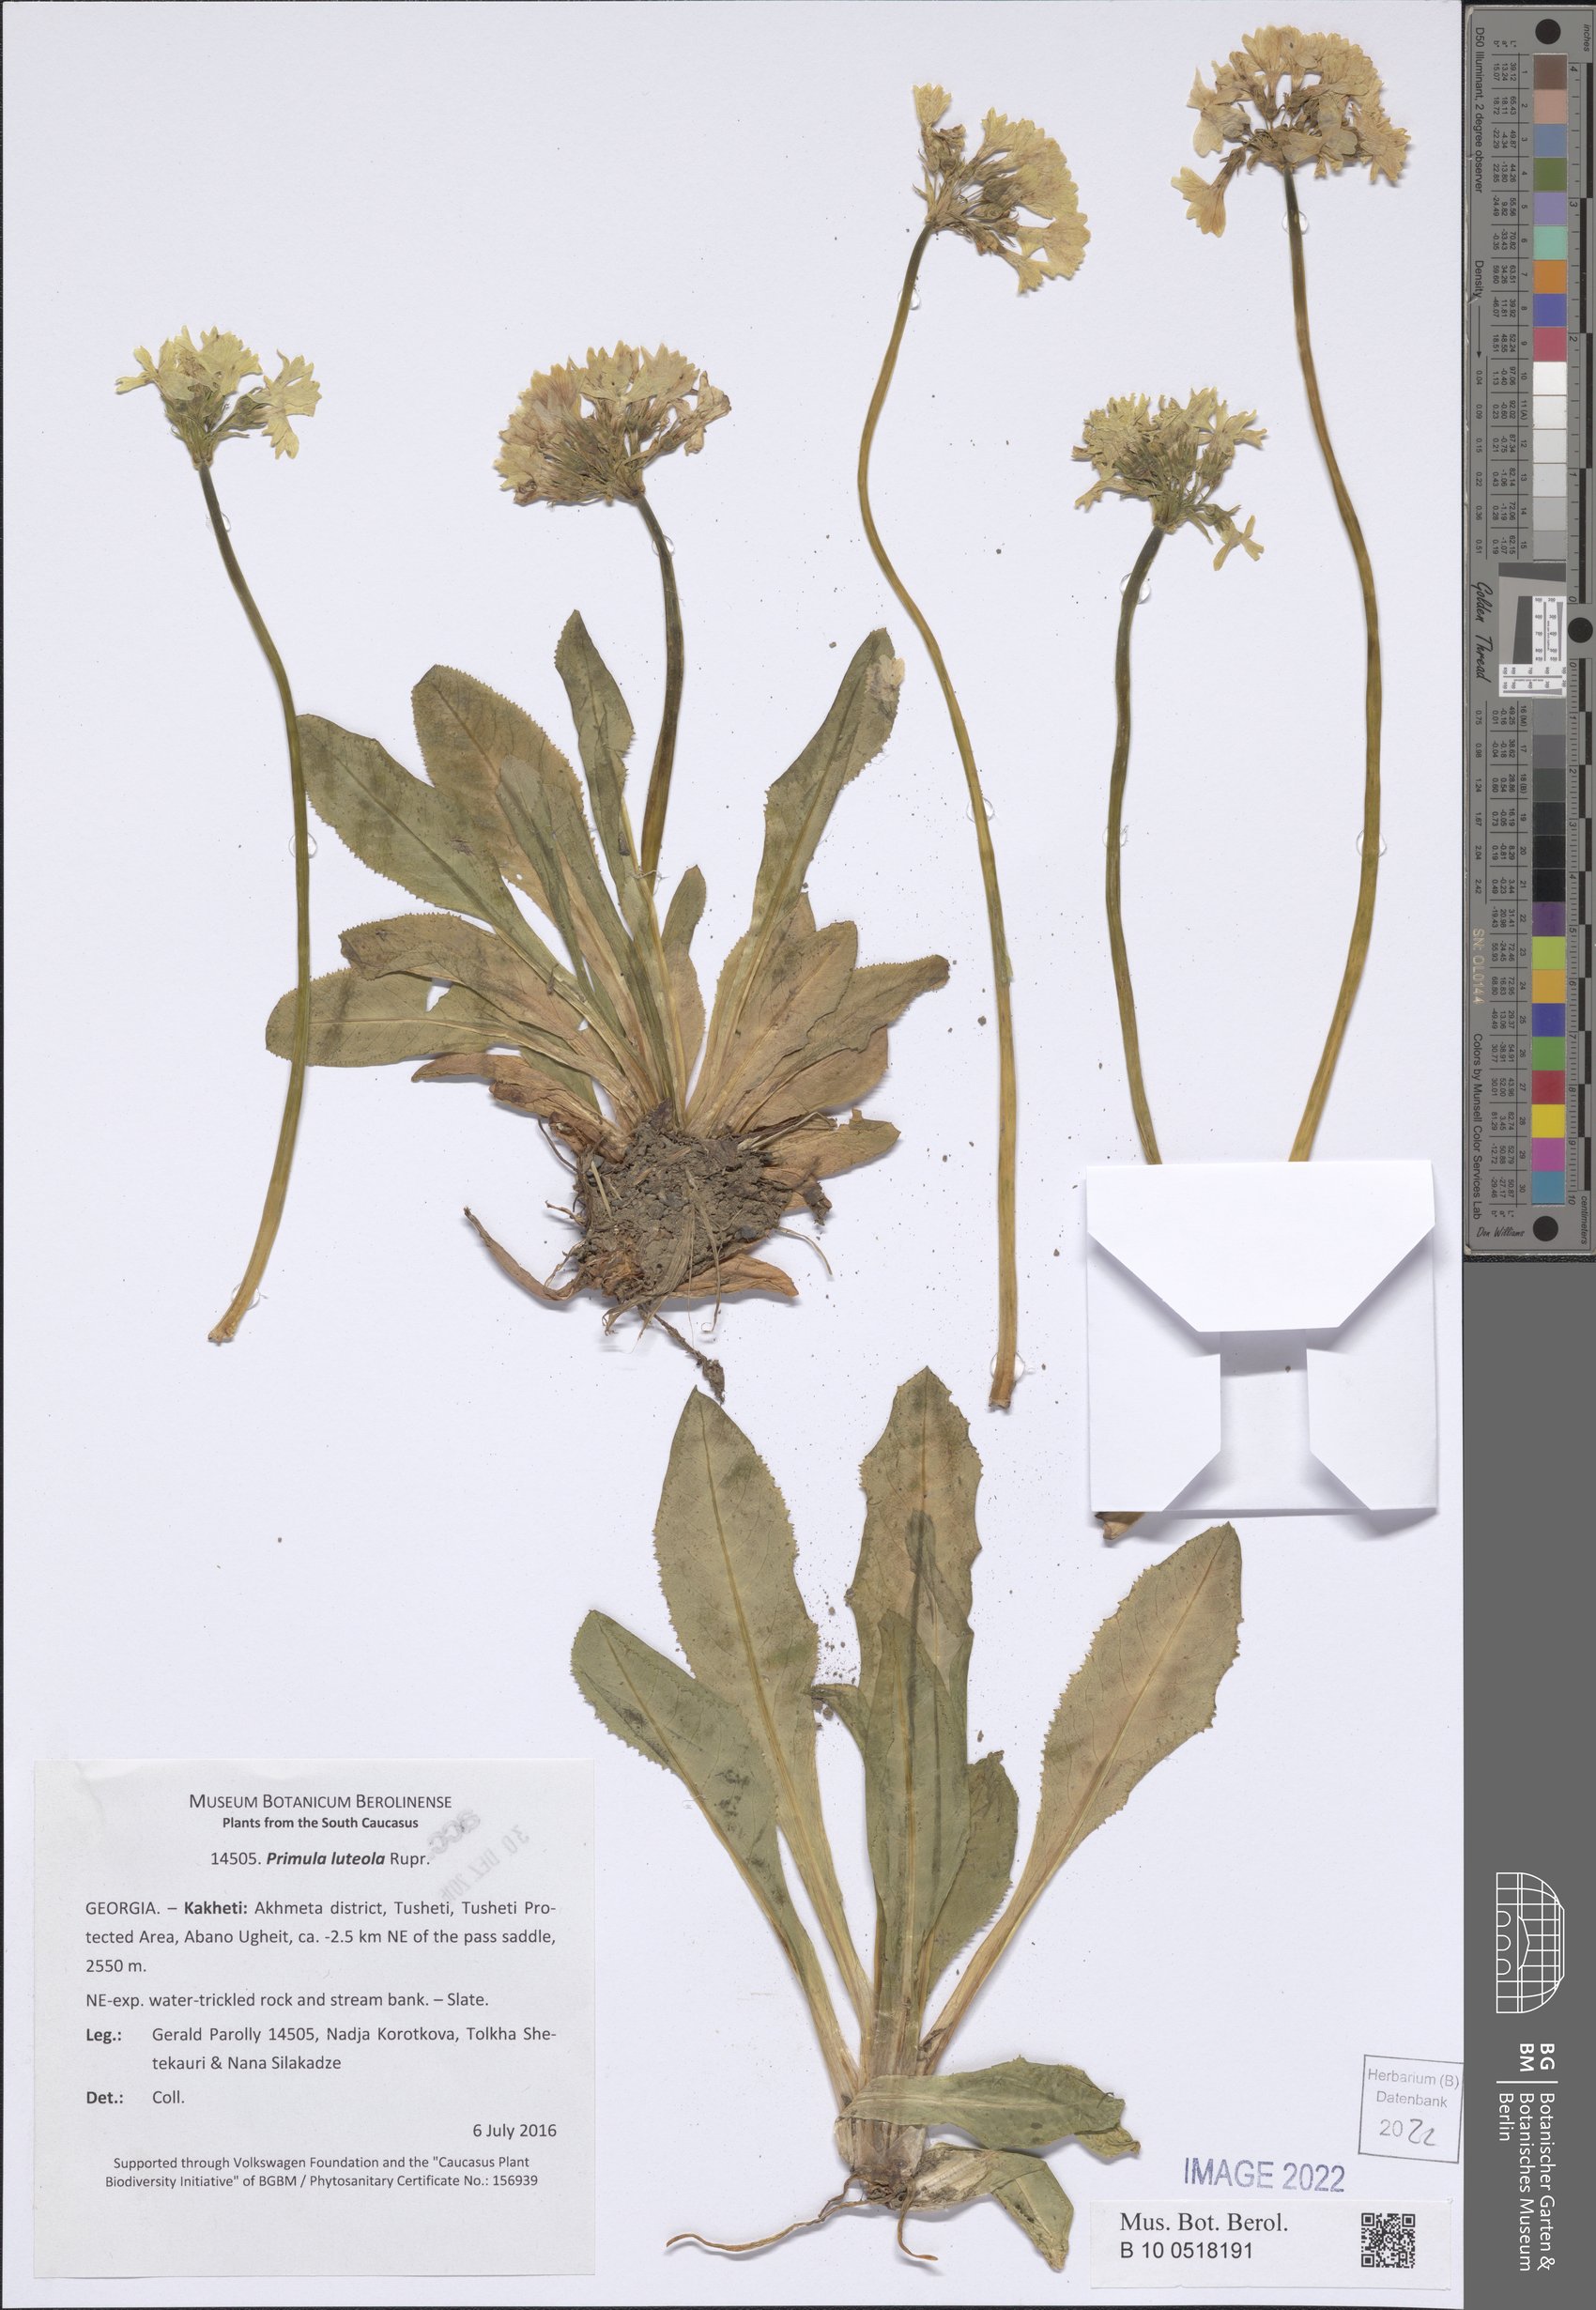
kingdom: Plantae
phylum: Tracheophyta
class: Magnoliopsida
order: Ericales
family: Primulaceae
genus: Primula
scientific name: Primula luteola
